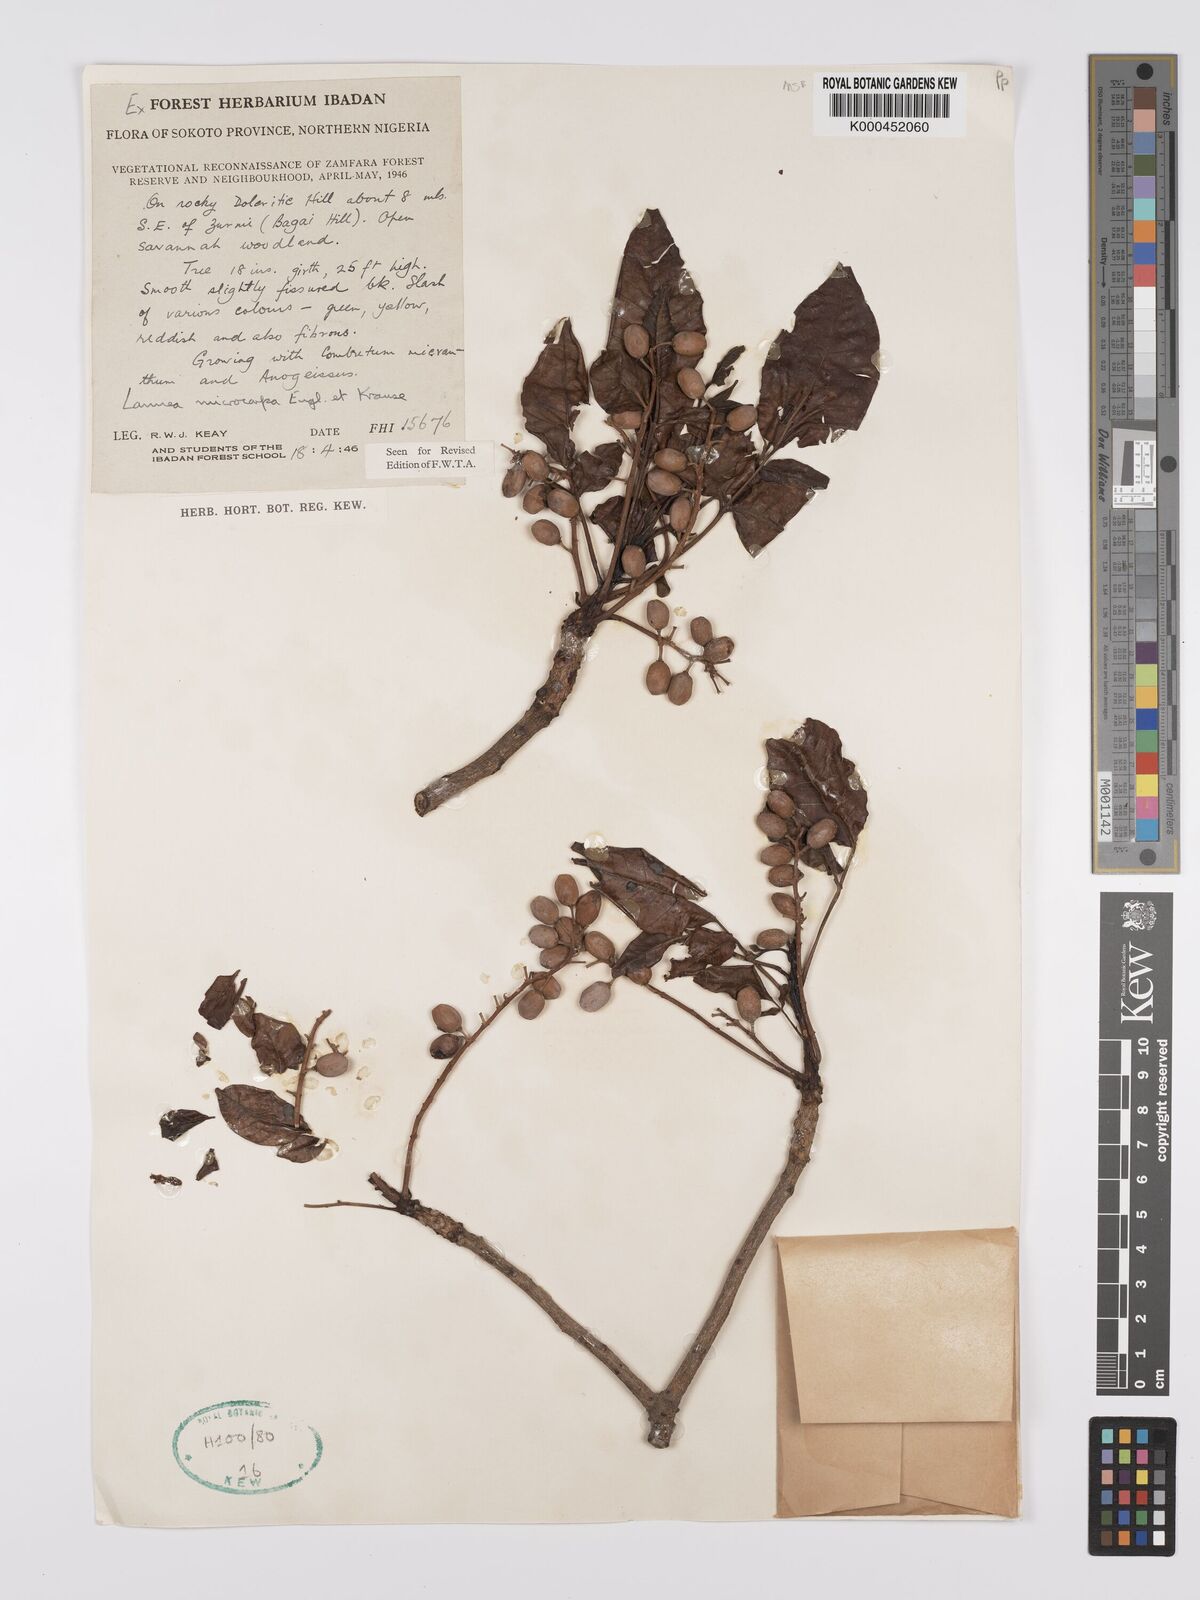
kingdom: Plantae
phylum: Tracheophyta
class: Magnoliopsida
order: Sapindales
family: Anacardiaceae
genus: Lannea
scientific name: Lannea microcarpa
